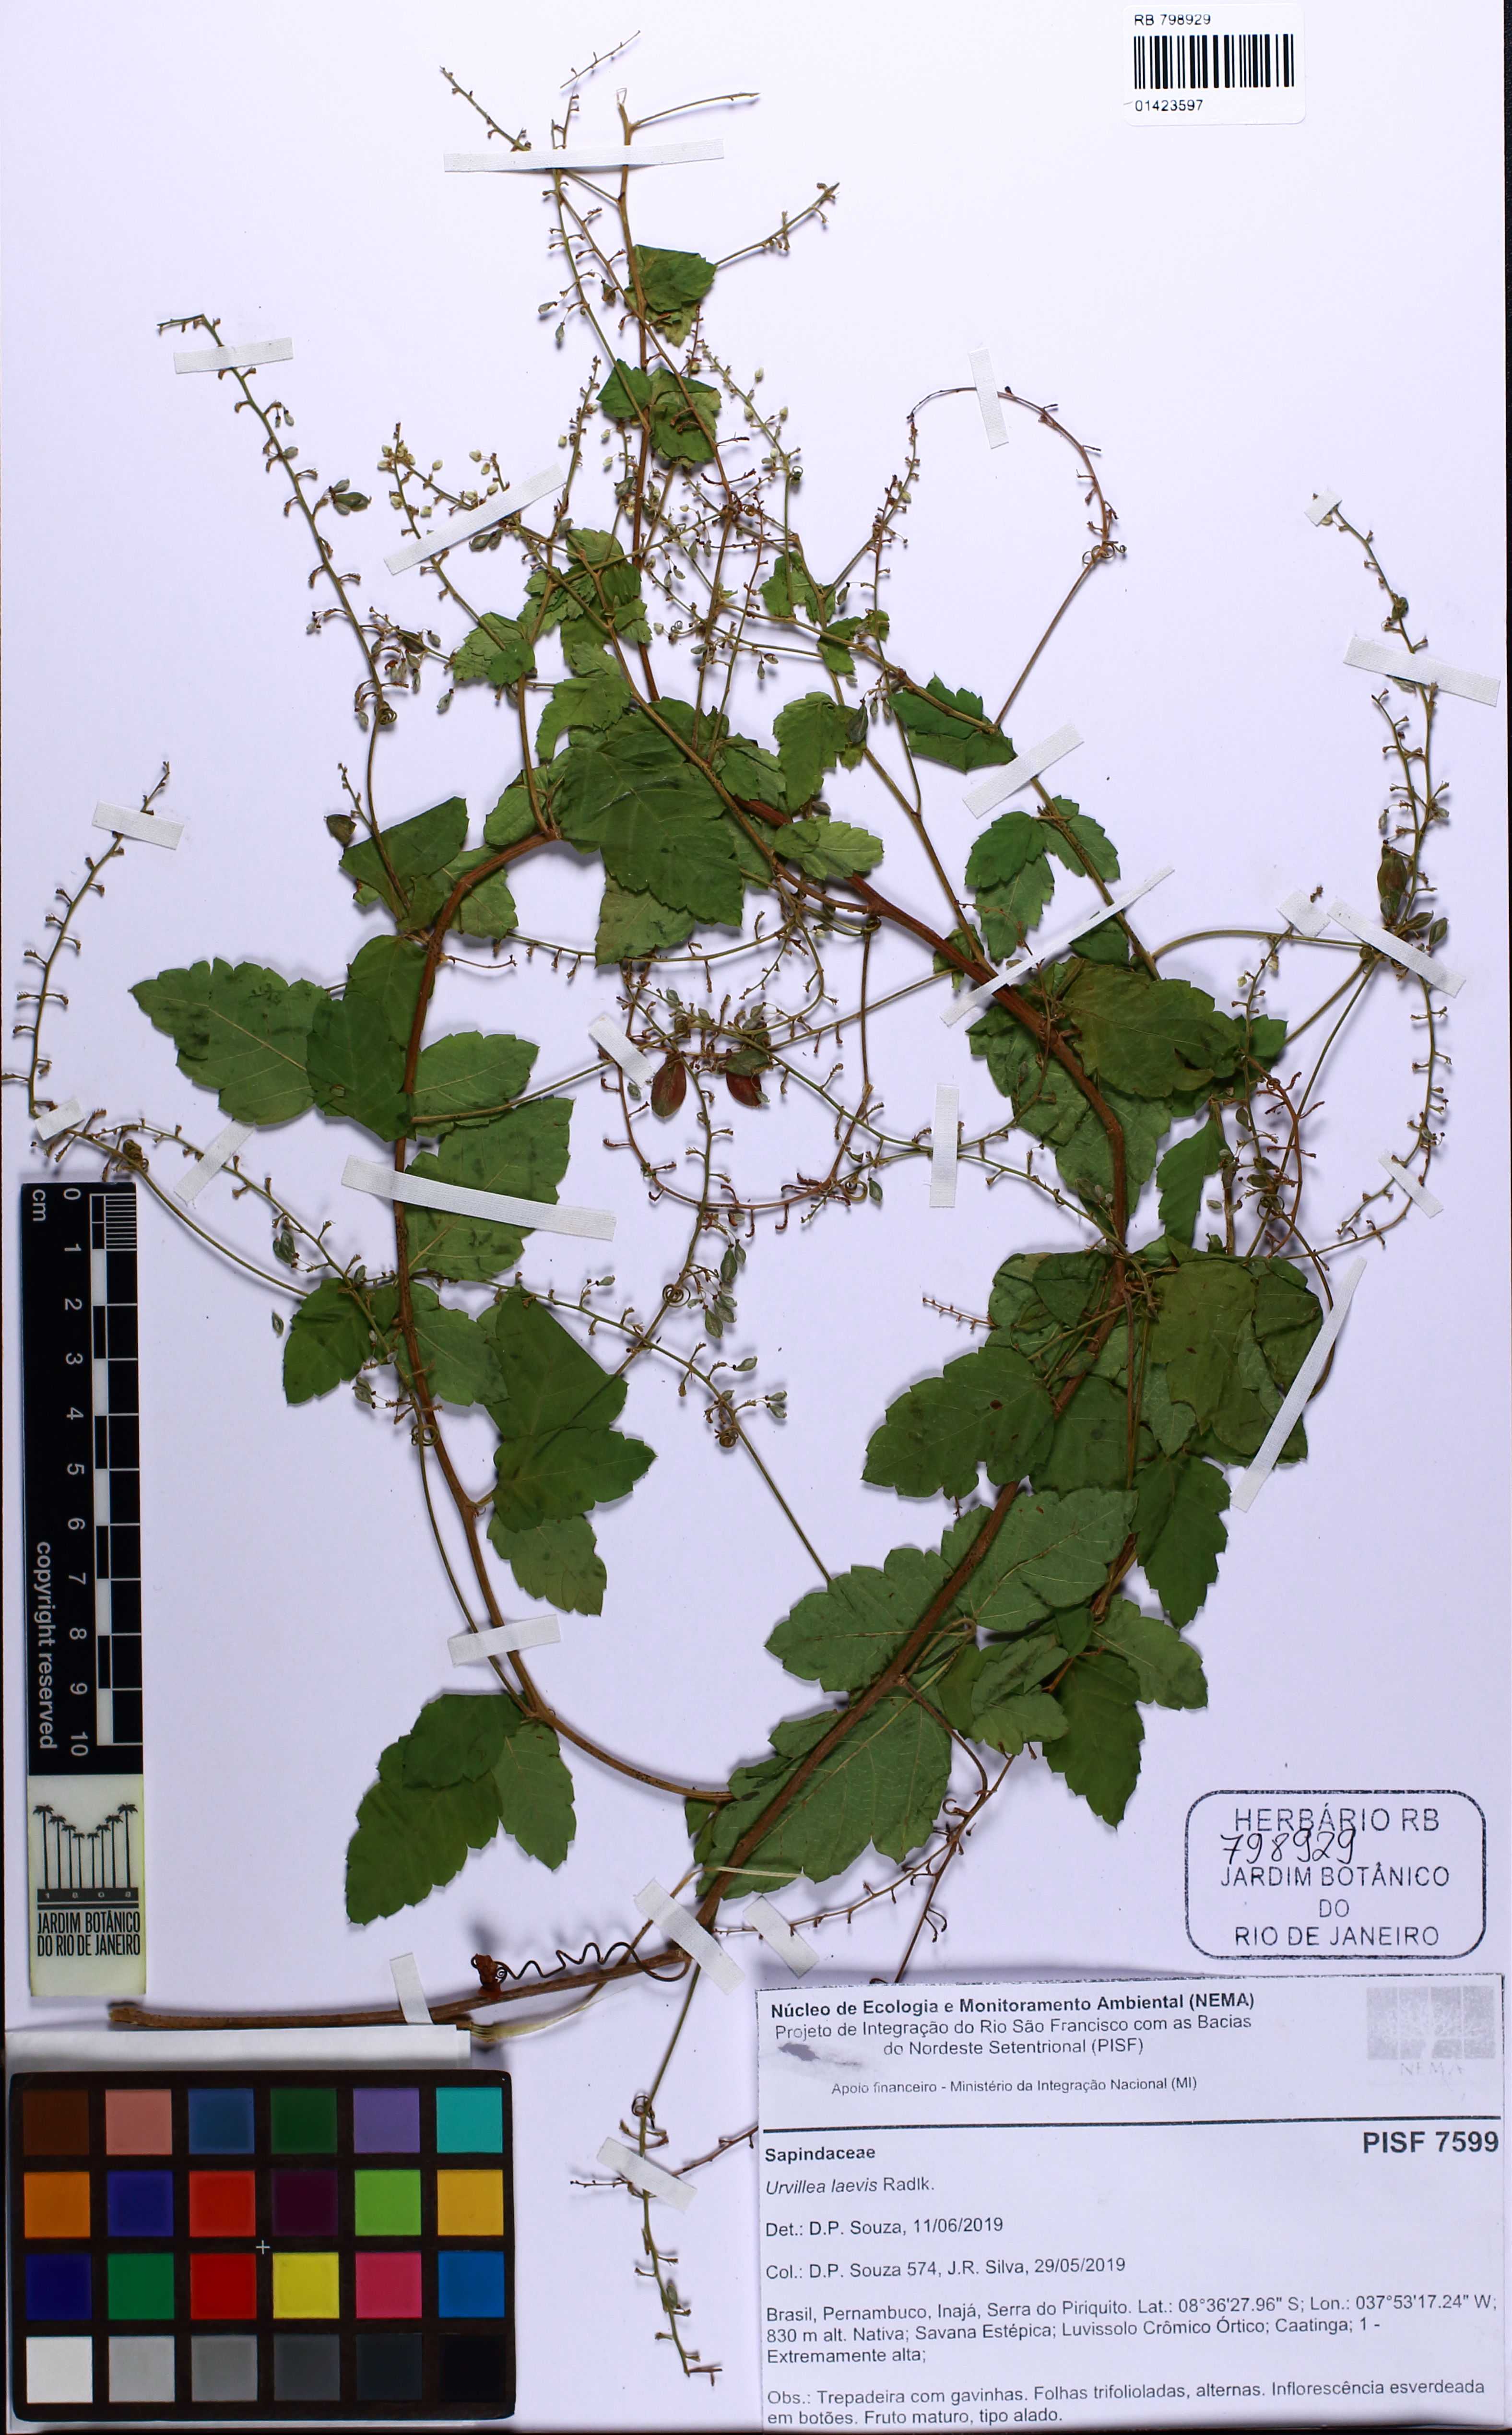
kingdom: Plantae
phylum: Tracheophyta
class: Magnoliopsida
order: Sapindales
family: Sapindaceae
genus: Urvillea
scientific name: Urvillea laevis
